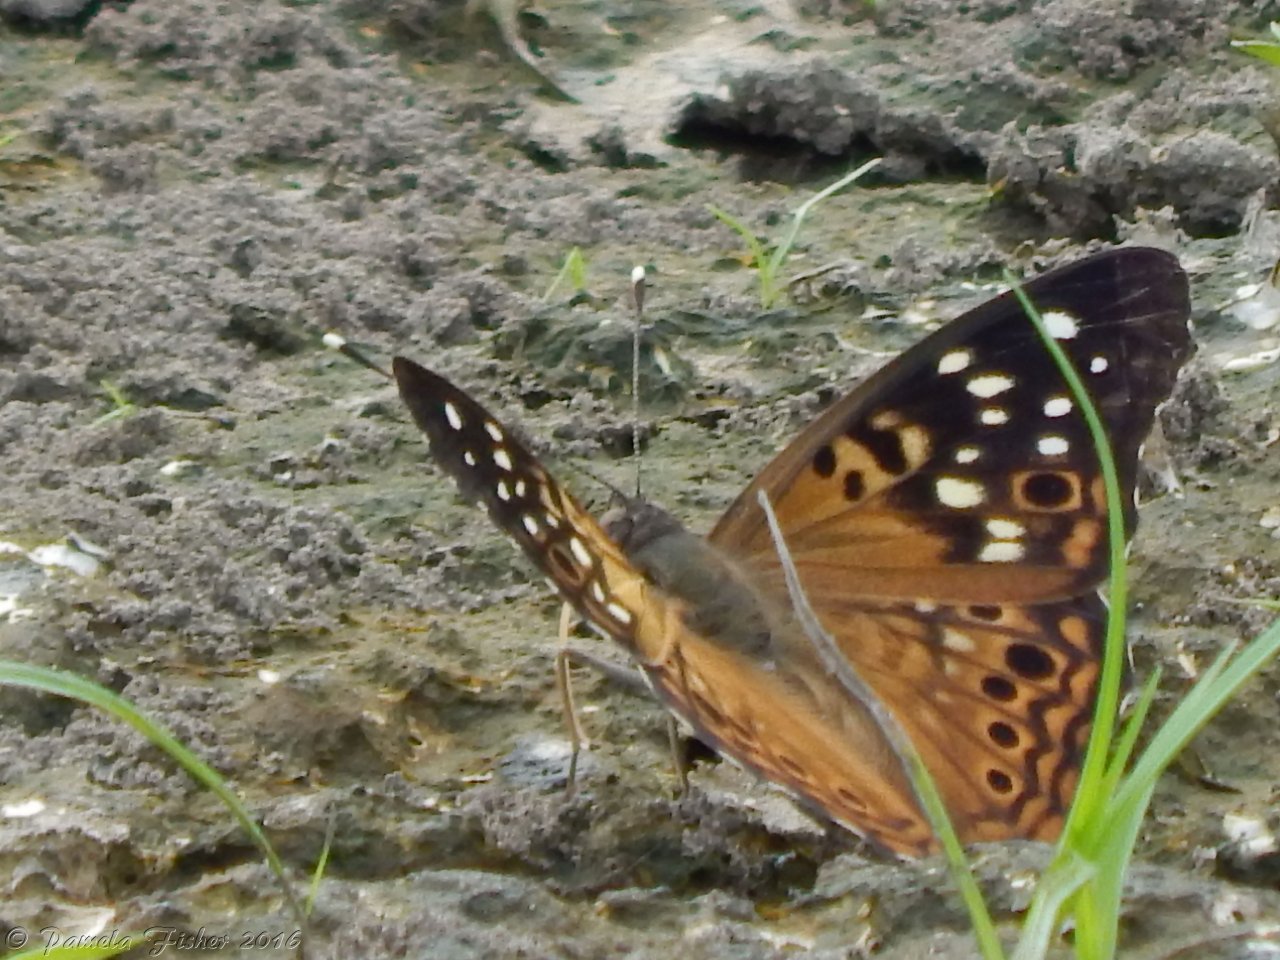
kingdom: Animalia
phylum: Arthropoda
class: Insecta
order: Lepidoptera
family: Nymphalidae
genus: Asterocampa
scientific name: Asterocampa celtis
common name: Hackberry Emperor
